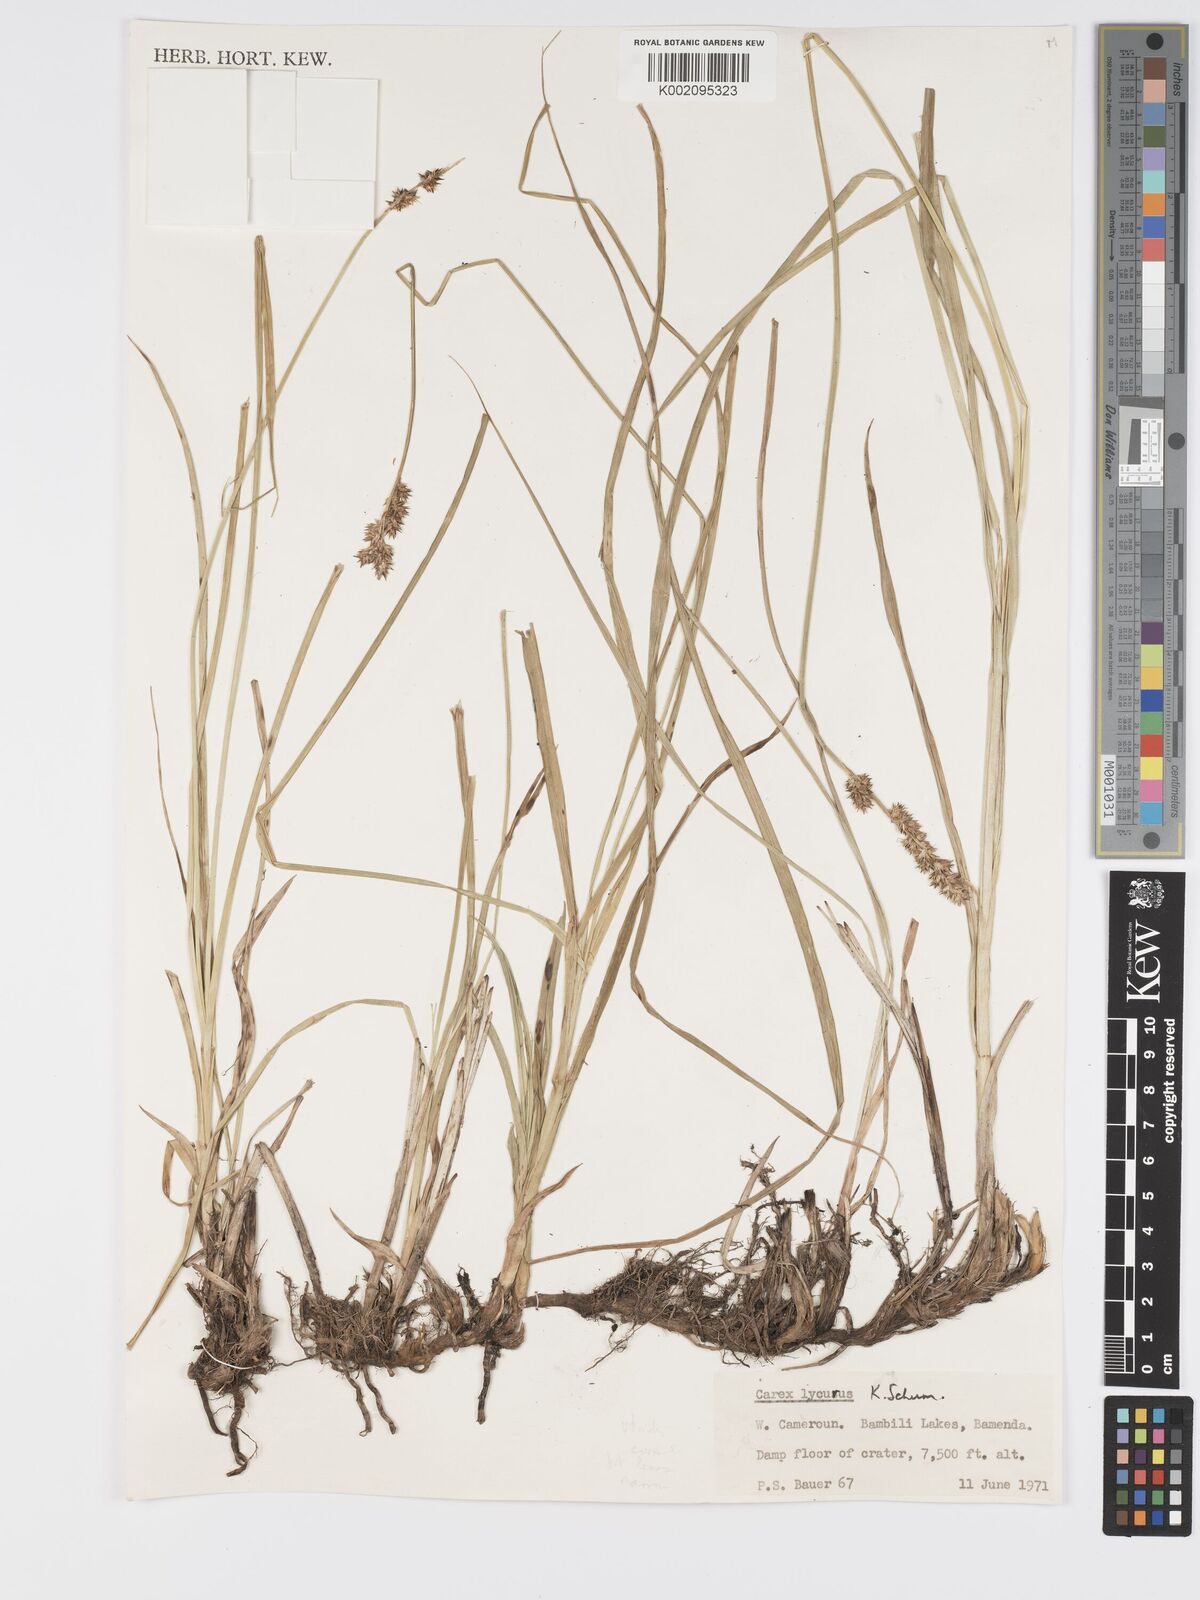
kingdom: Plantae
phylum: Tracheophyta
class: Liliopsida
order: Poales
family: Cyperaceae
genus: Carex
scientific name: Carex lycurus
